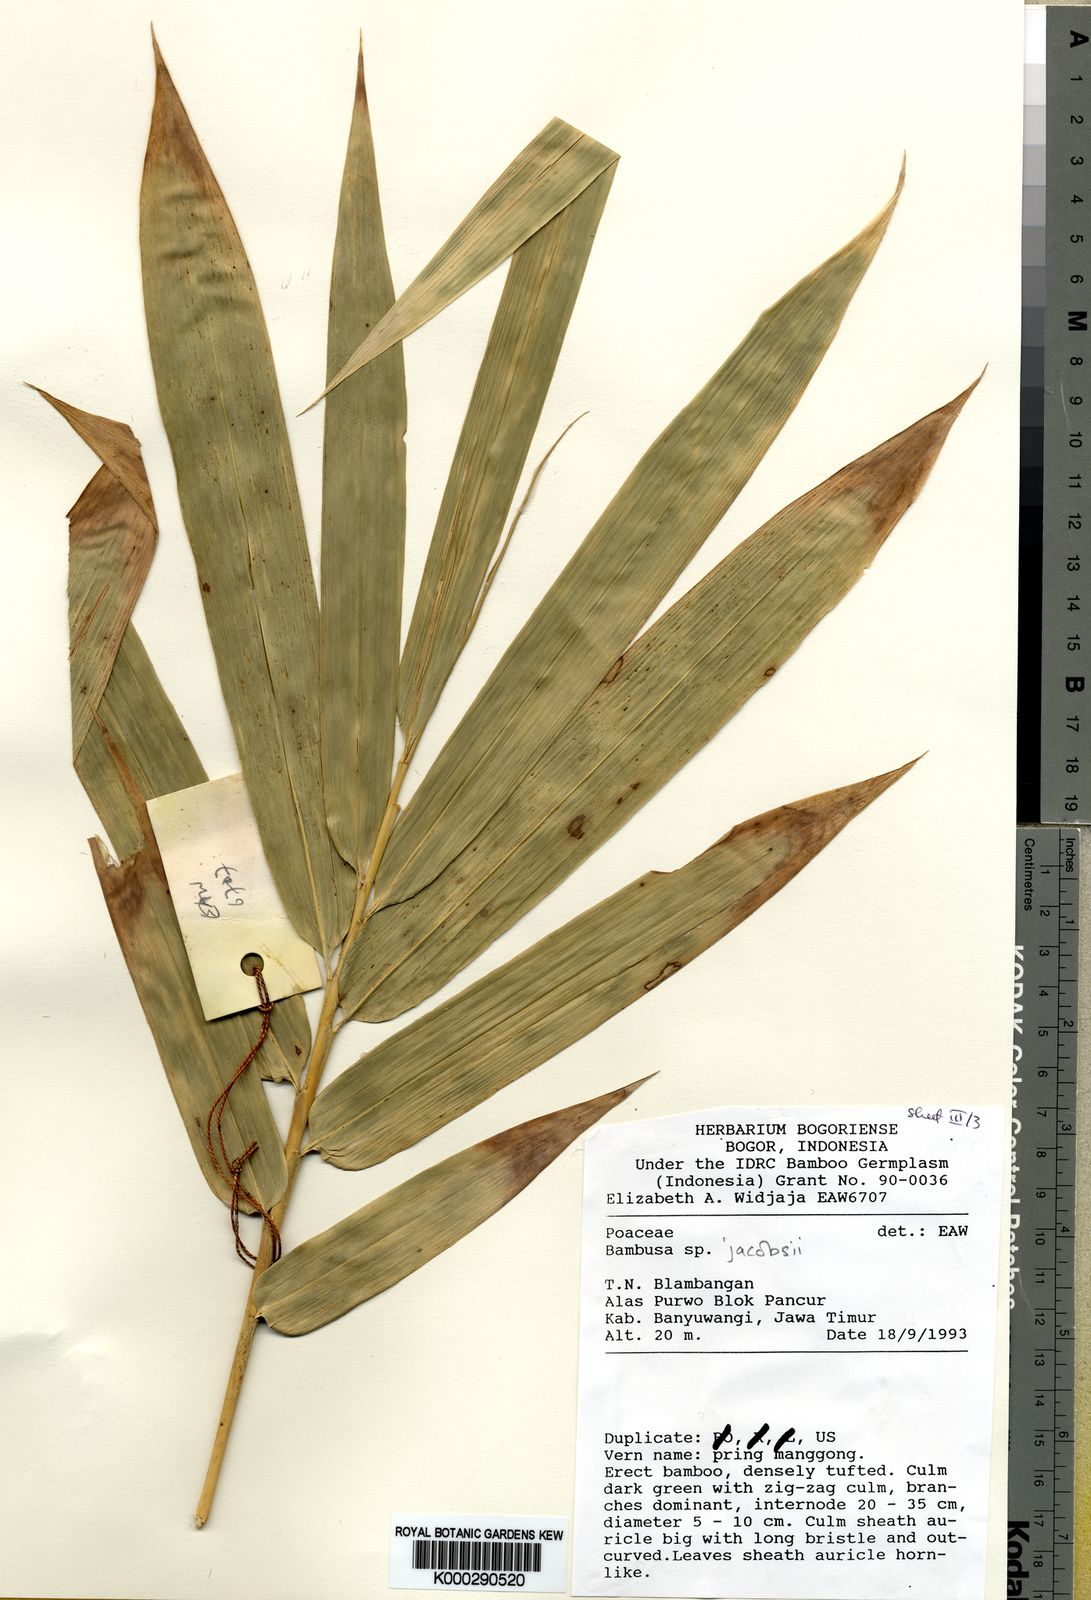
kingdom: Plantae
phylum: Tracheophyta
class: Liliopsida
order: Poales
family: Poaceae
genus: Bambusa
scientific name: Bambusa
